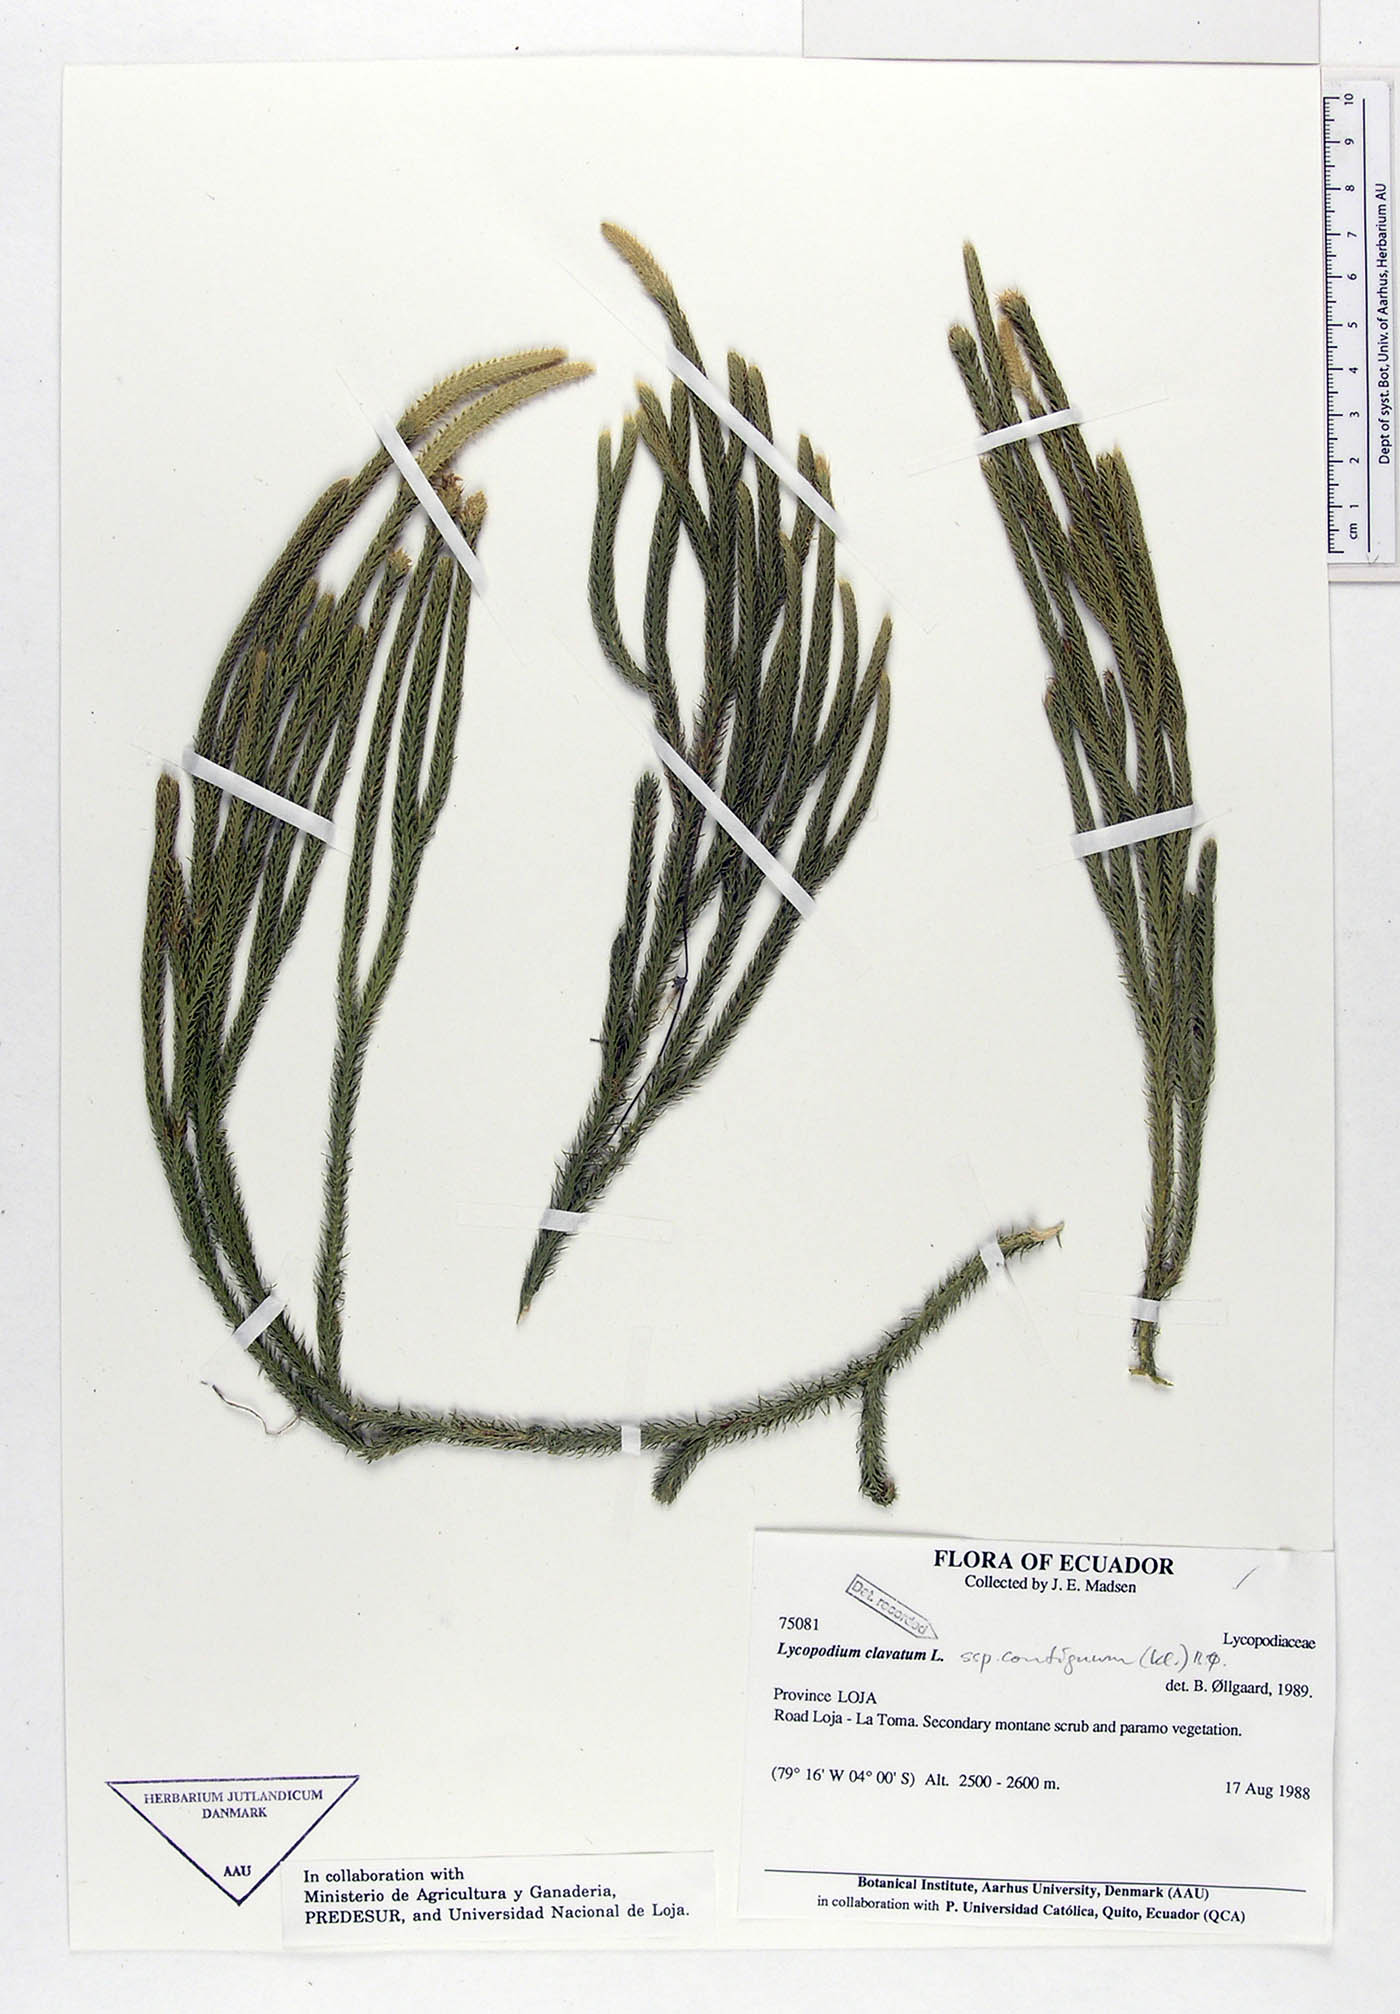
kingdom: Plantae
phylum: Tracheophyta
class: Lycopodiopsida
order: Lycopodiales
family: Lycopodiaceae
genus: Lycopodium
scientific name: Lycopodium clavatum
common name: Stag's-horn clubmoss
